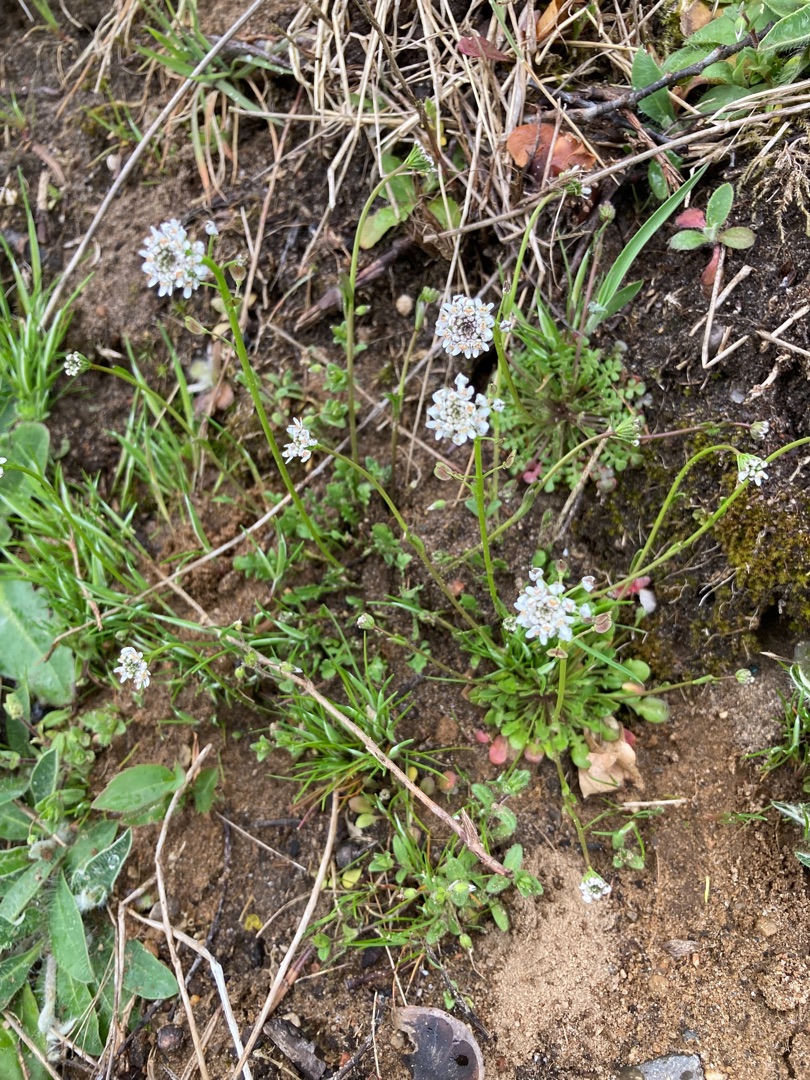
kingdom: Plantae
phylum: Tracheophyta
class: Magnoliopsida
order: Brassicales
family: Brassicaceae
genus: Teesdalia
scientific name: Teesdalia nudicaulis
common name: Flipkrave
